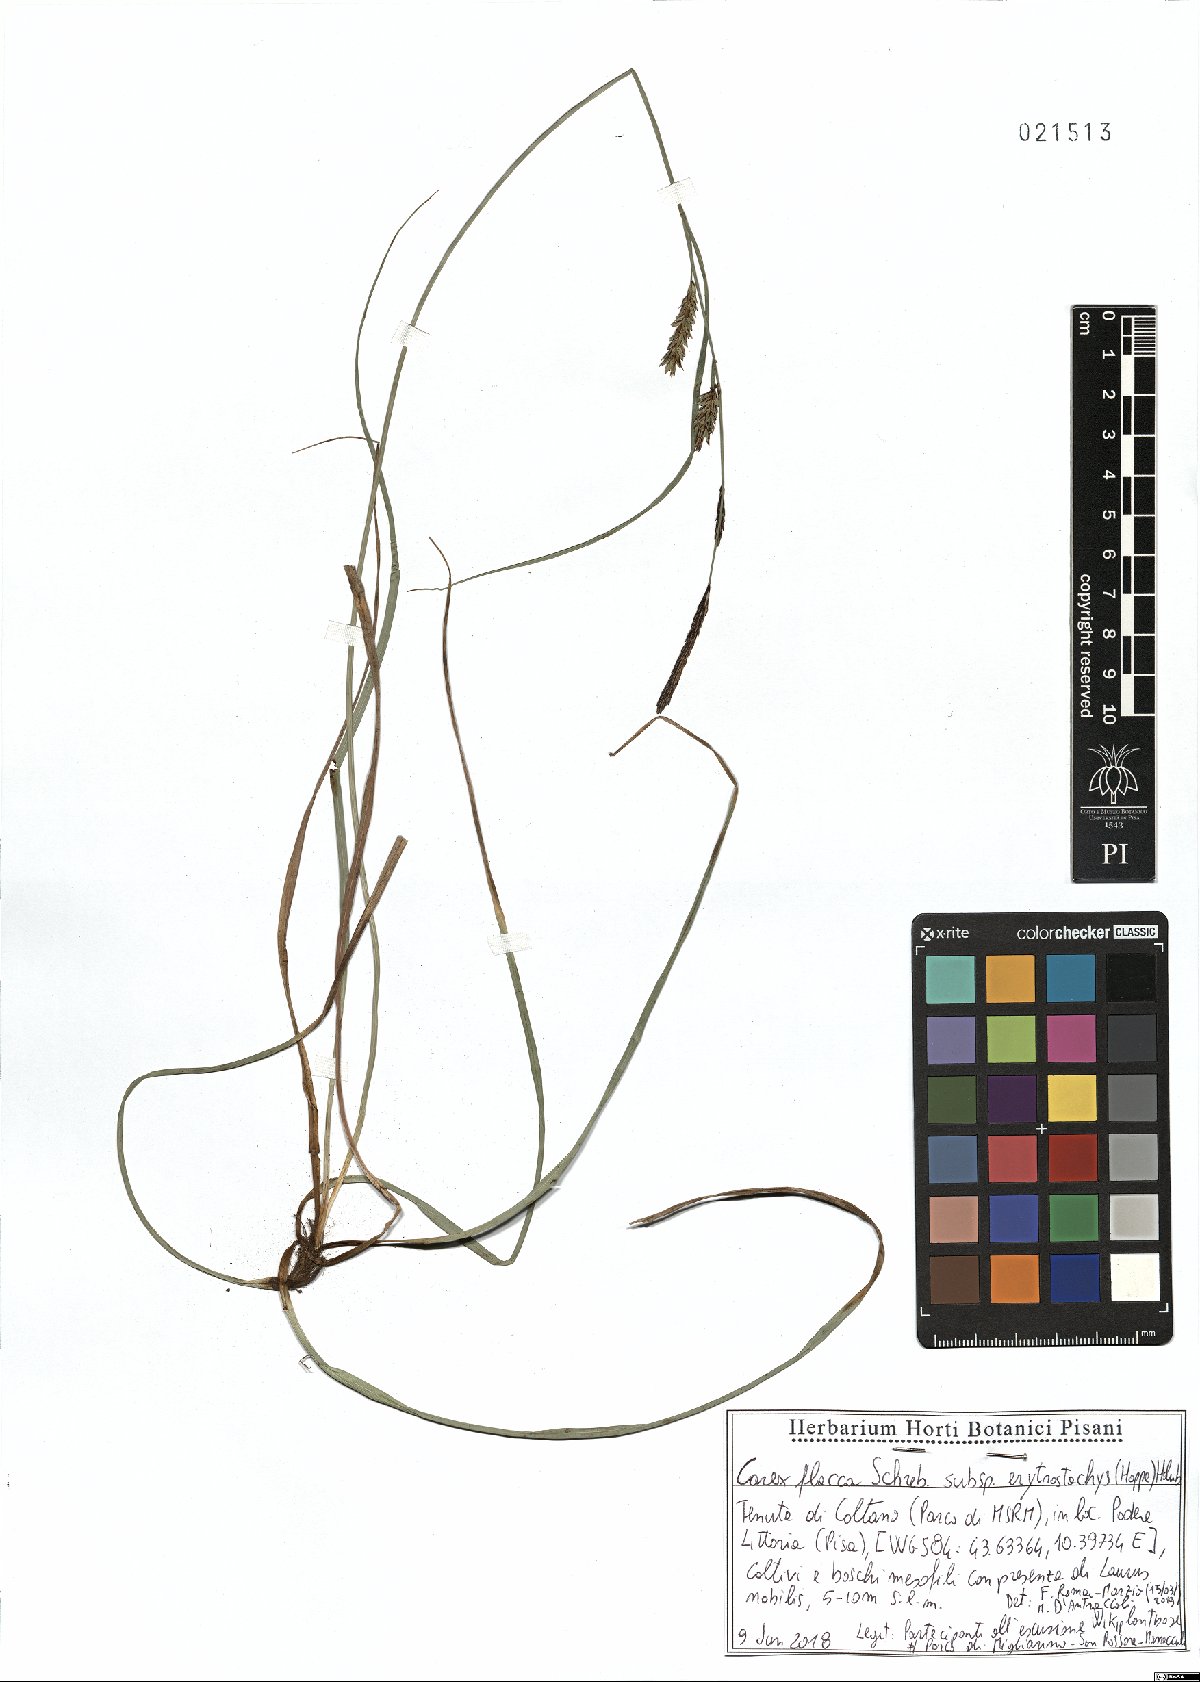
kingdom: Plantae
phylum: Tracheophyta
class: Liliopsida
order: Poales
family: Cyperaceae
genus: Carex
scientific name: Carex flacca
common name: Glaucous sedge
